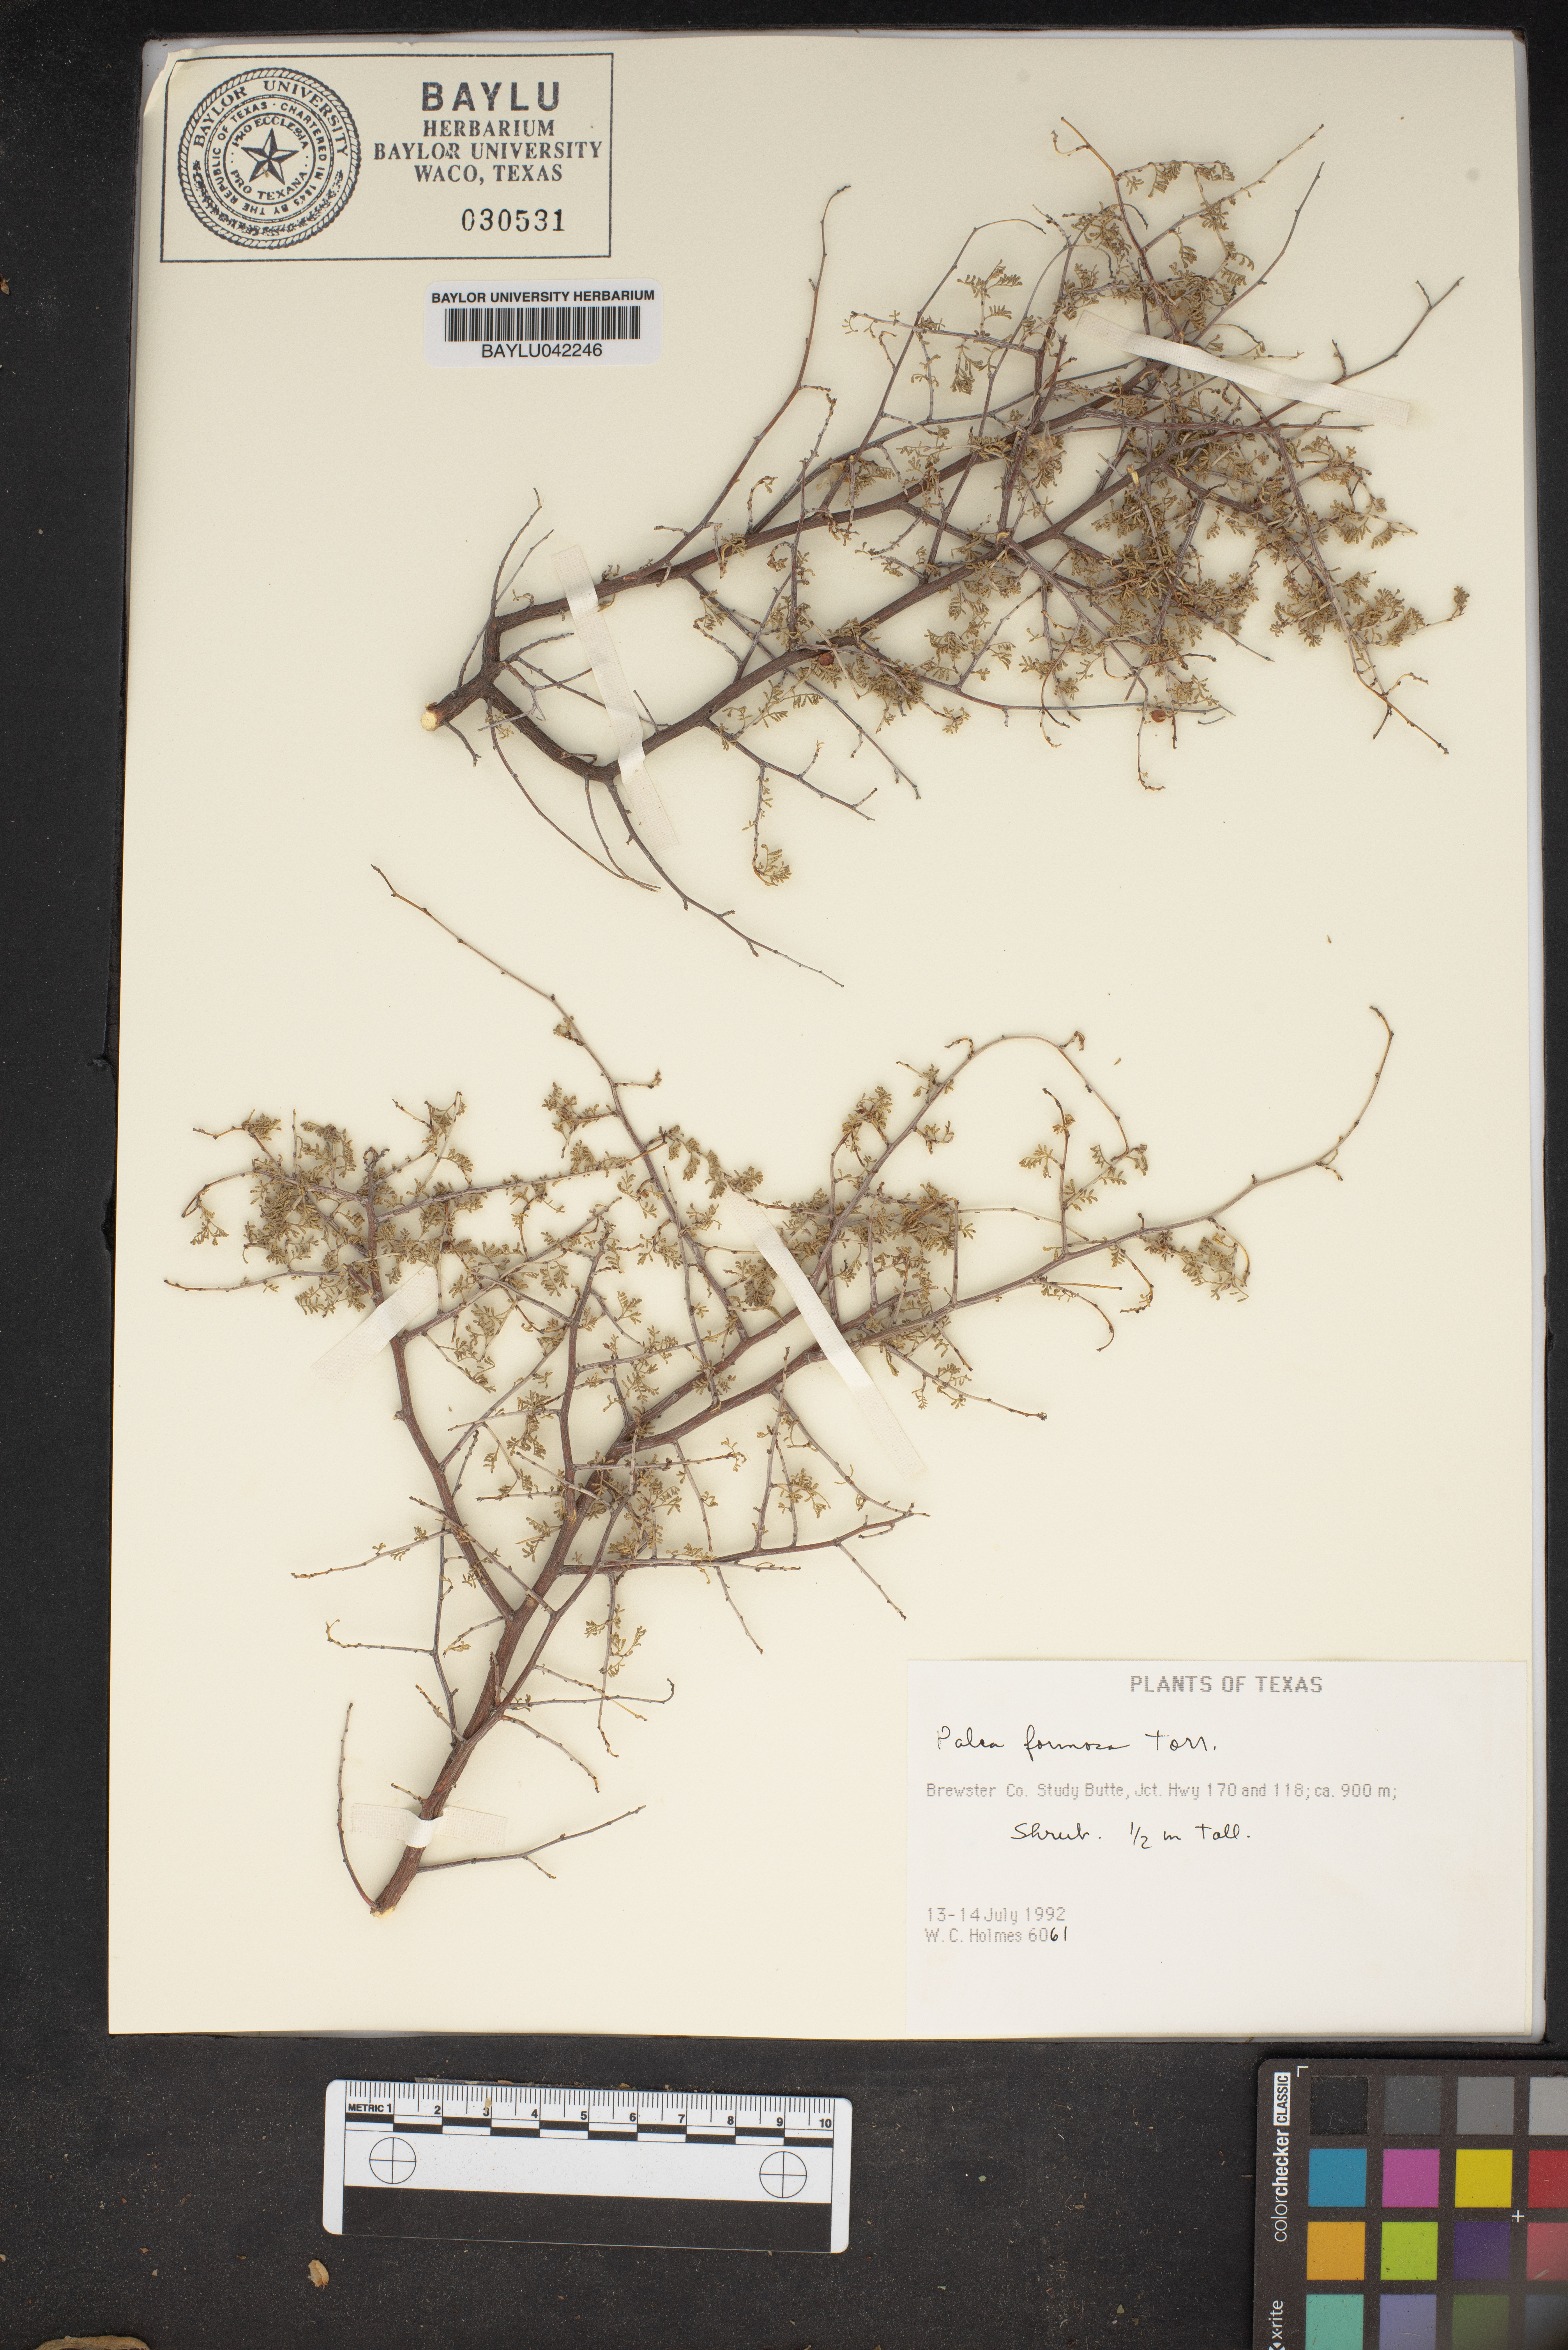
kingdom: Plantae
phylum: Tracheophyta
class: Magnoliopsida
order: Fabales
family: Fabaceae
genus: Dalea
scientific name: Dalea formosa
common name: Feather-plume dalea
